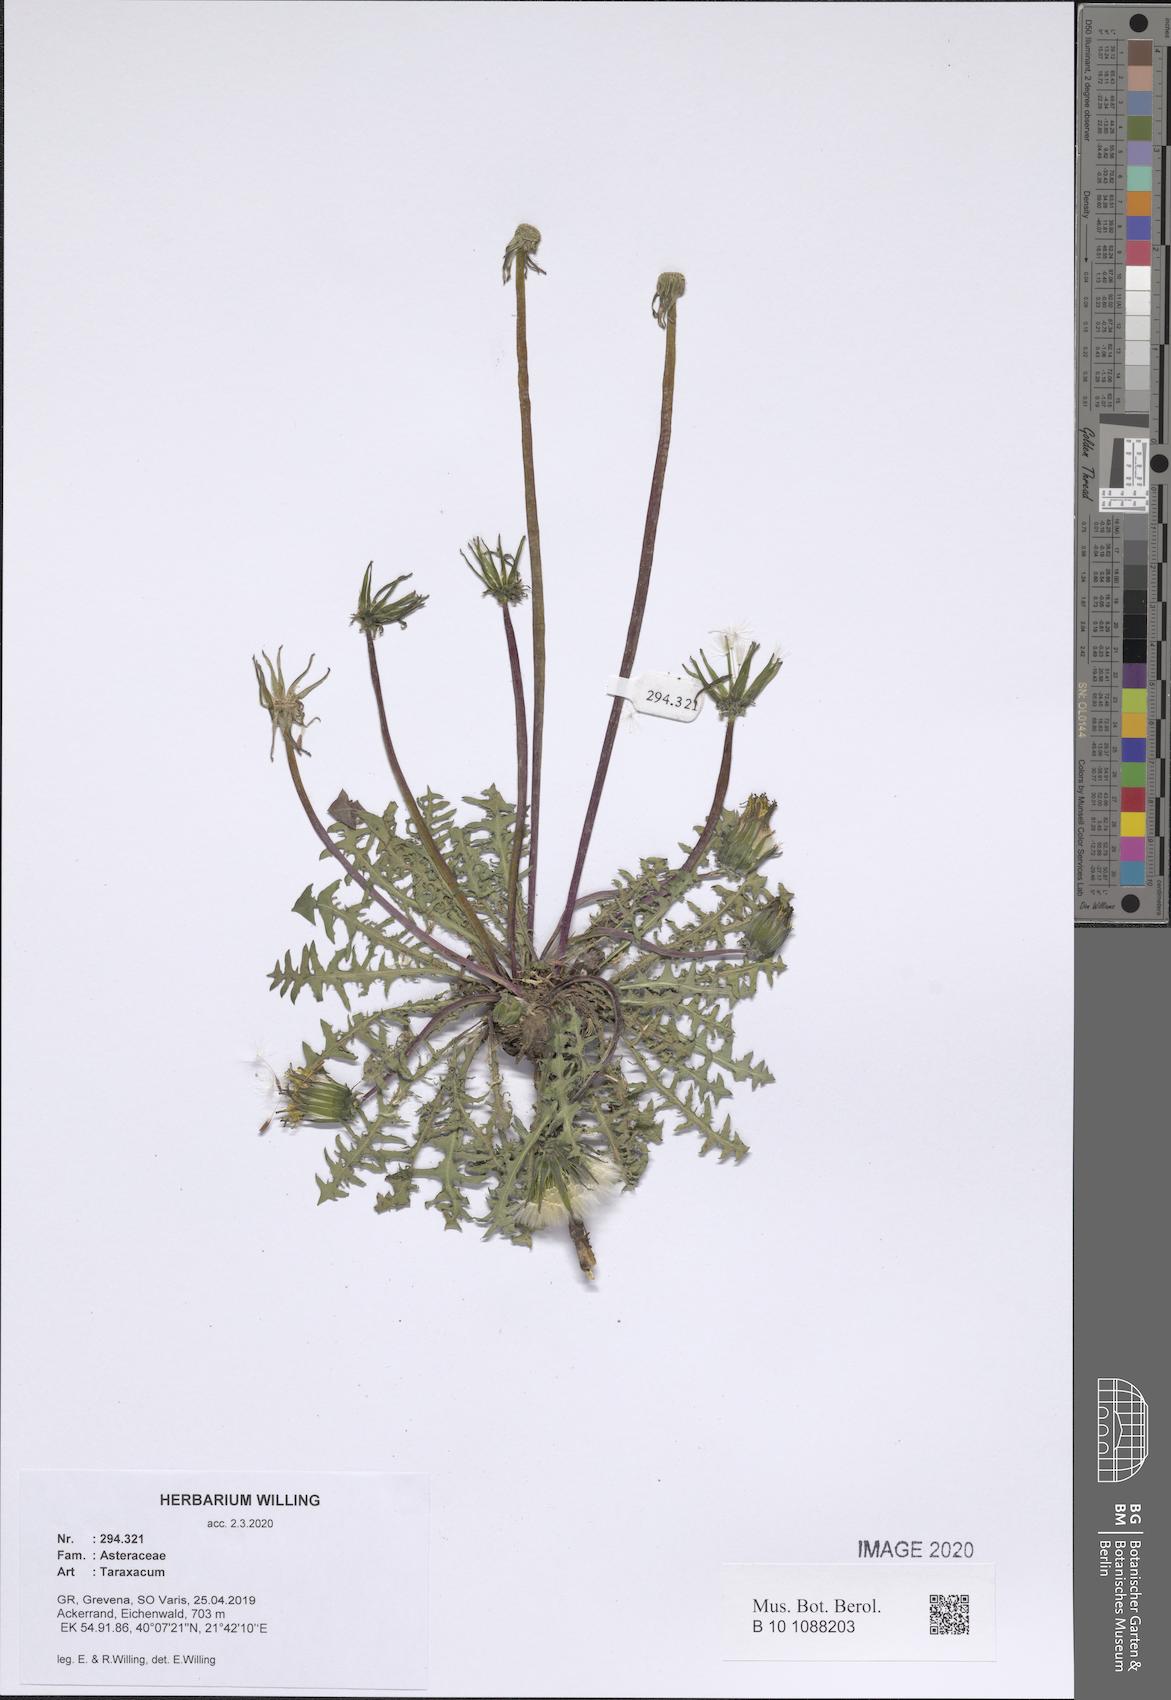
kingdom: Plantae
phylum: Tracheophyta
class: Magnoliopsida
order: Asterales
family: Asteraceae
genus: Taraxacum
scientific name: Taraxacum
